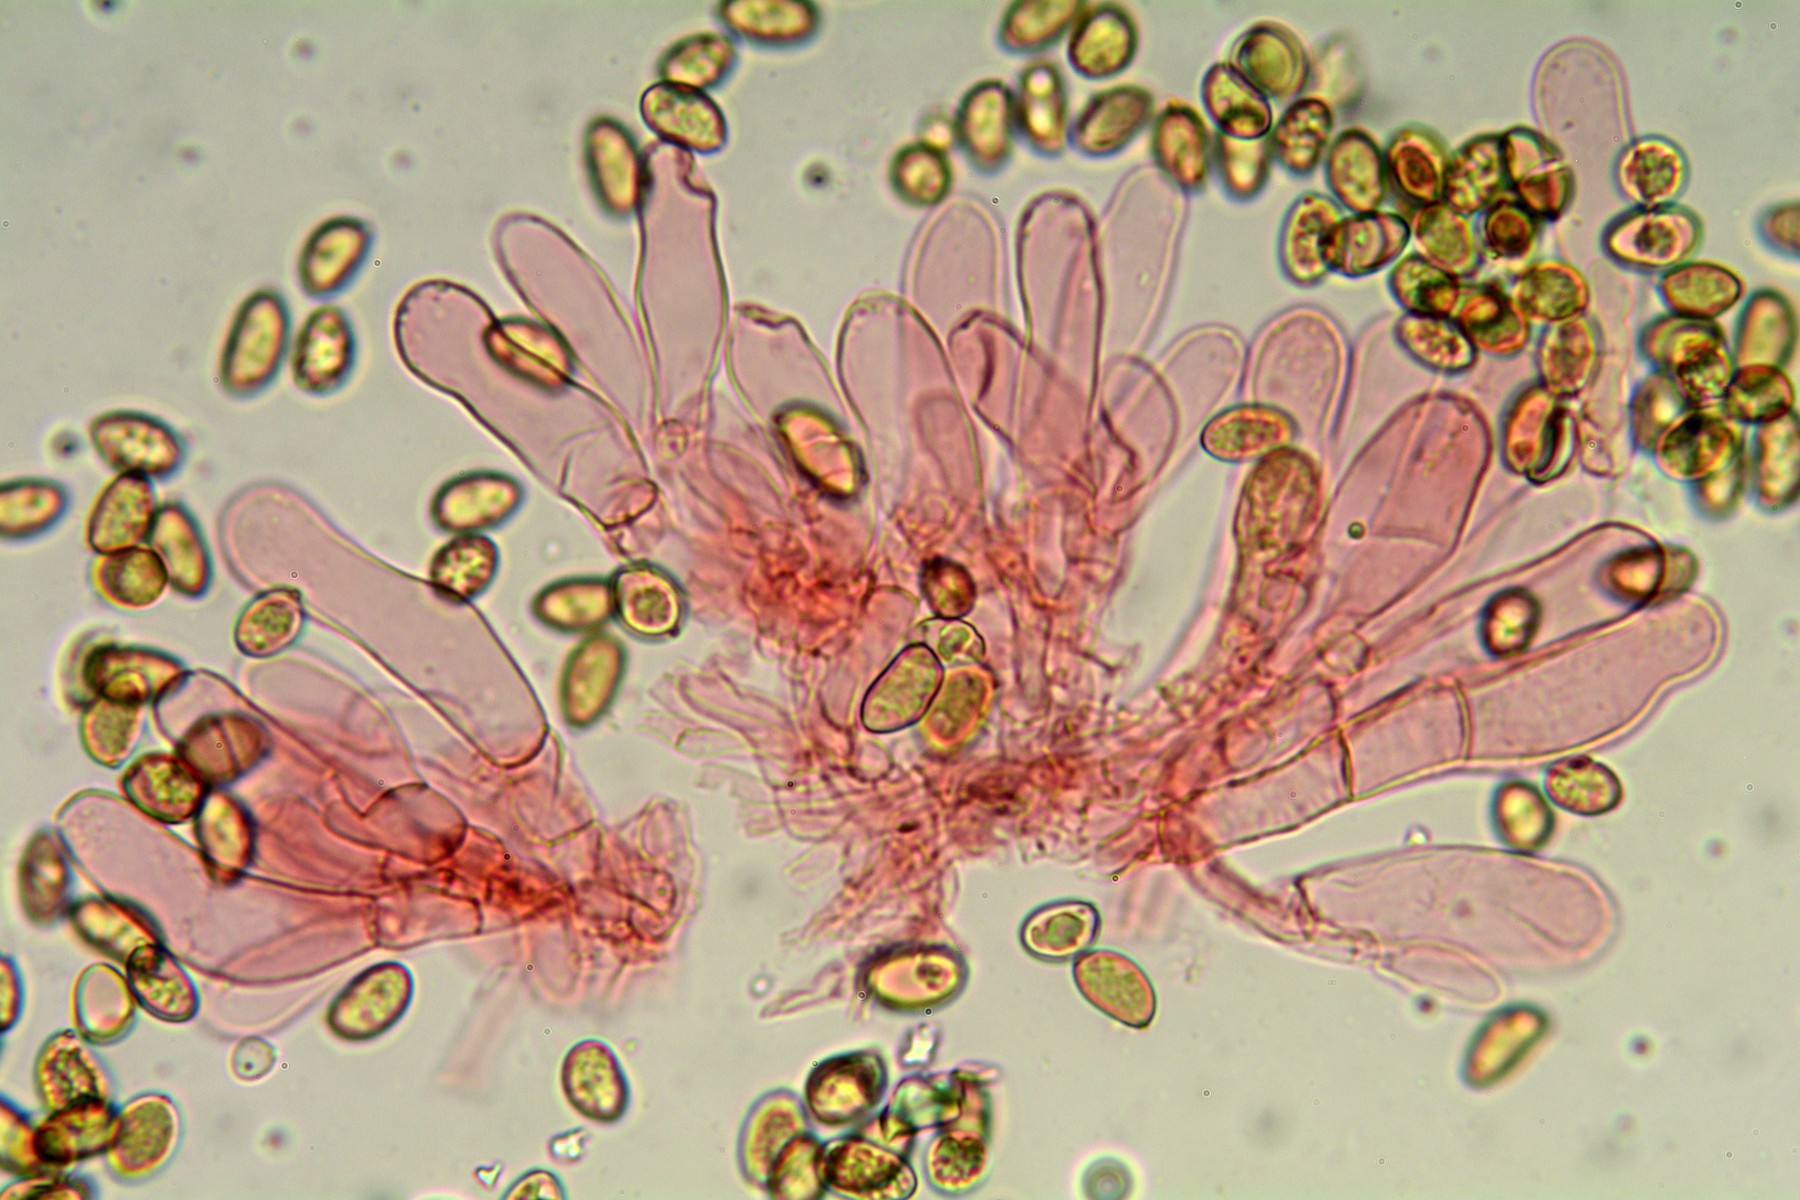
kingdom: Fungi
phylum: Basidiomycota
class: Agaricomycetes
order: Agaricales
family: Inocybaceae
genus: Pseudosperma
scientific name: Pseudosperma
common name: trævlhat
